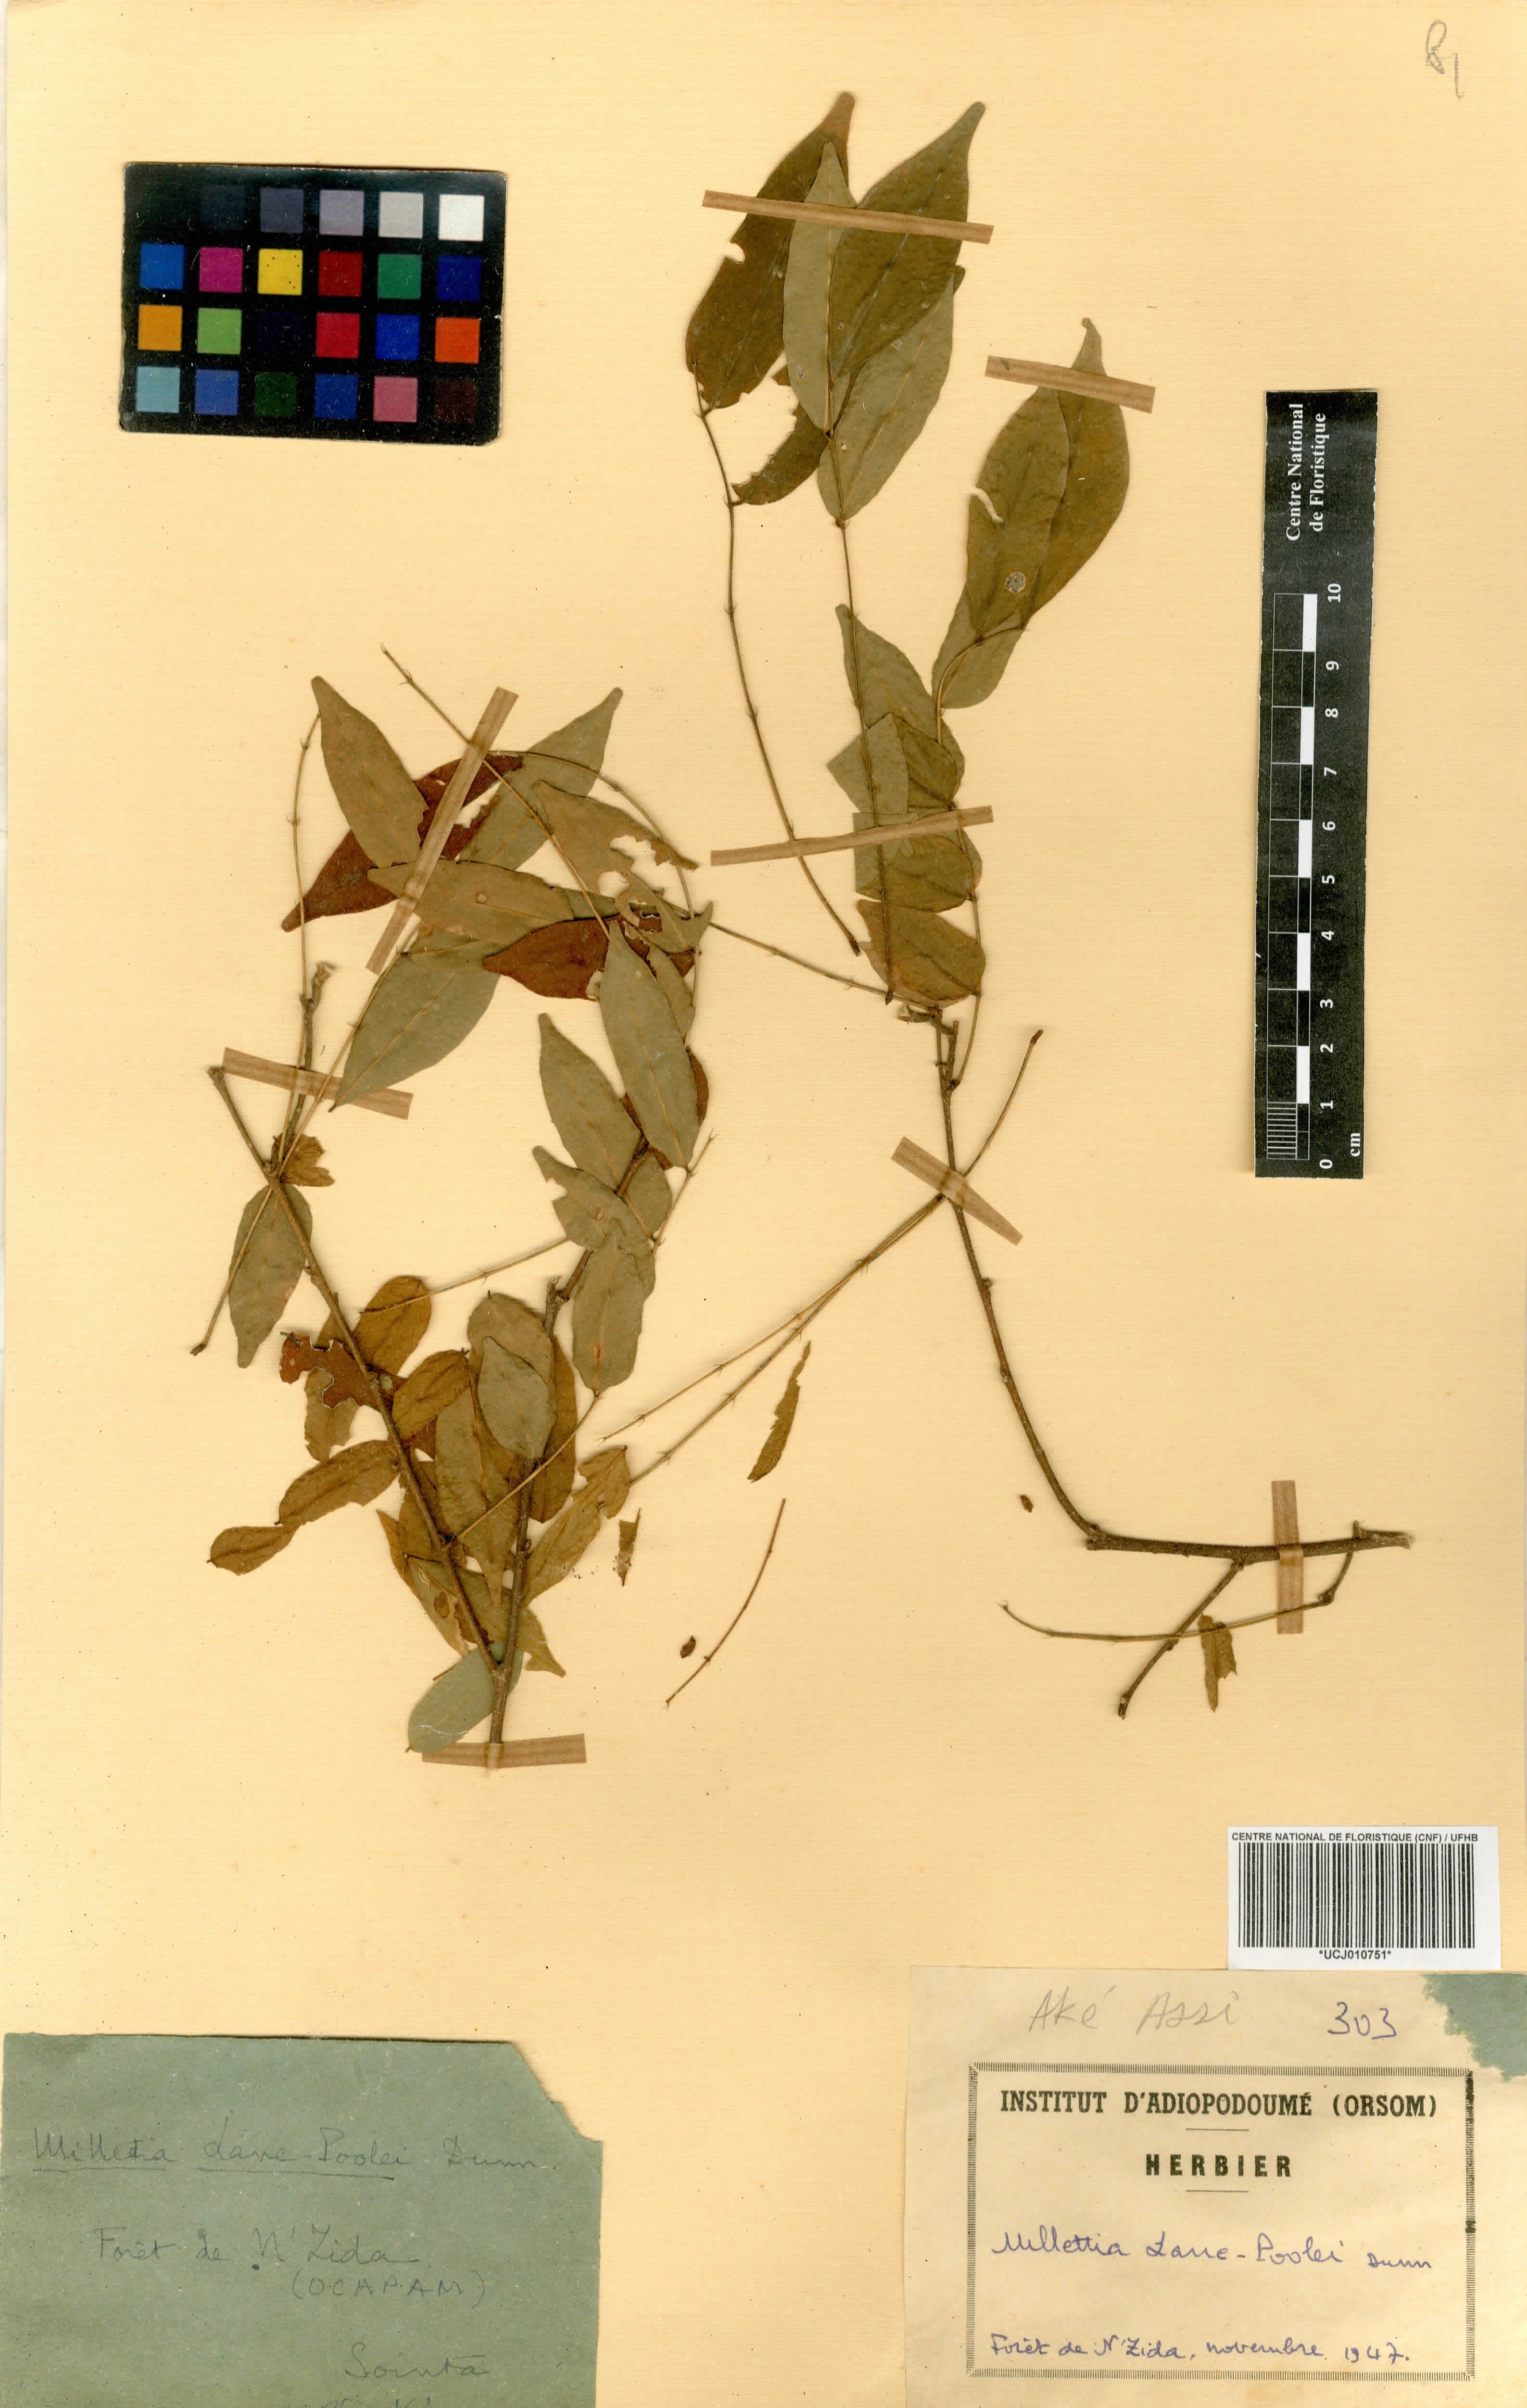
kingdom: Plantae
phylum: Tracheophyta
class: Magnoliopsida
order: Fabales
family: Fabaceae
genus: Millettia
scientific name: Millettia lane-poolei
